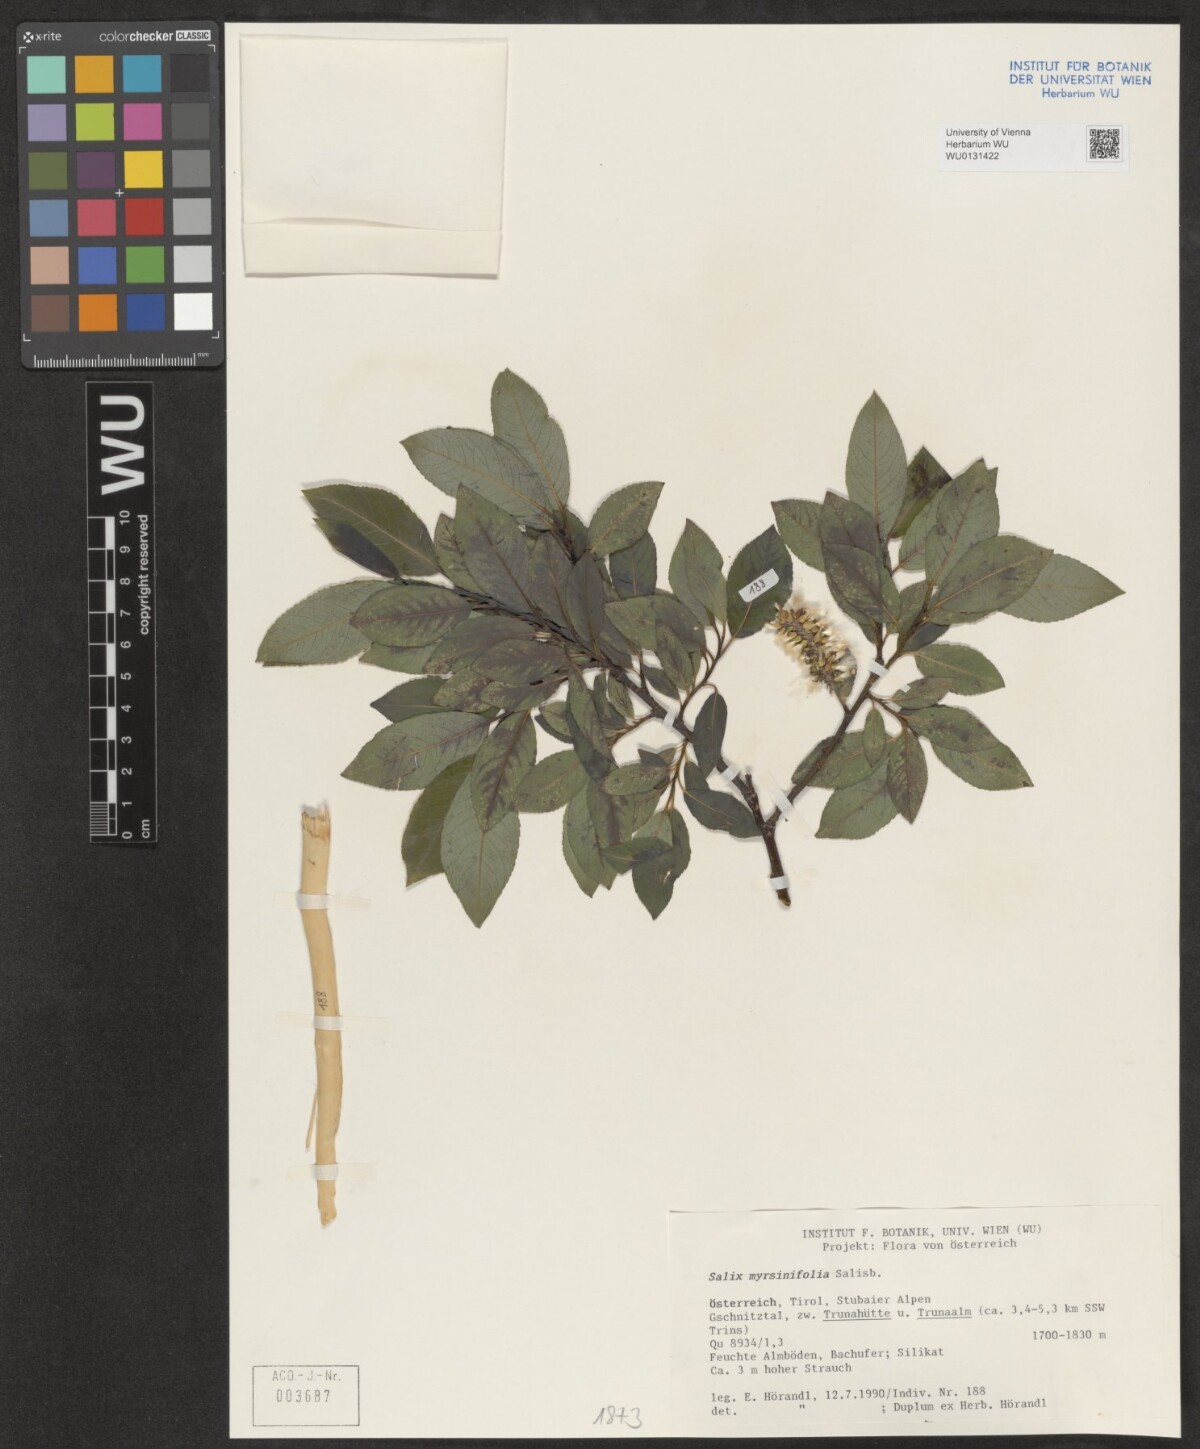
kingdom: Plantae
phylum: Tracheophyta
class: Magnoliopsida
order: Malpighiales
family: Salicaceae
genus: Salix
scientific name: Salix myrsinifolia
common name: Dark-leaved willow
